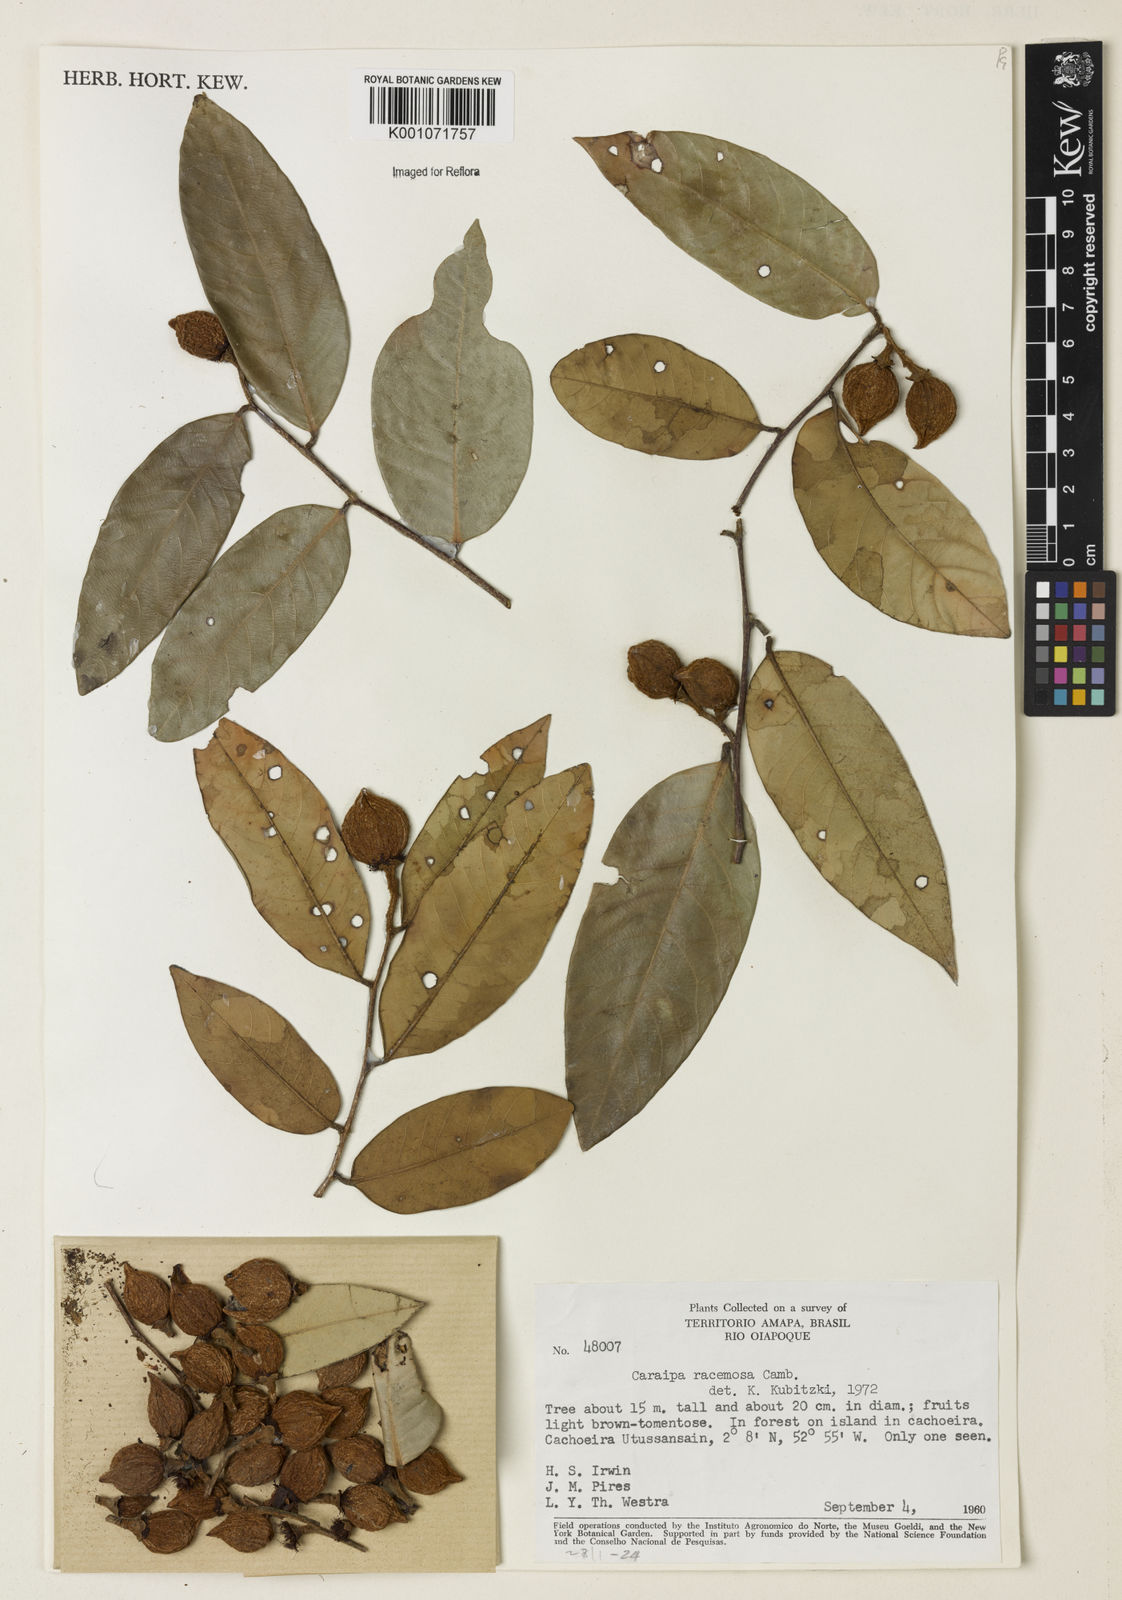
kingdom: Plantae
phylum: Tracheophyta
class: Magnoliopsida
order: Malpighiales
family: Calophyllaceae
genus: Caraipa
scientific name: Caraipa racemosa
